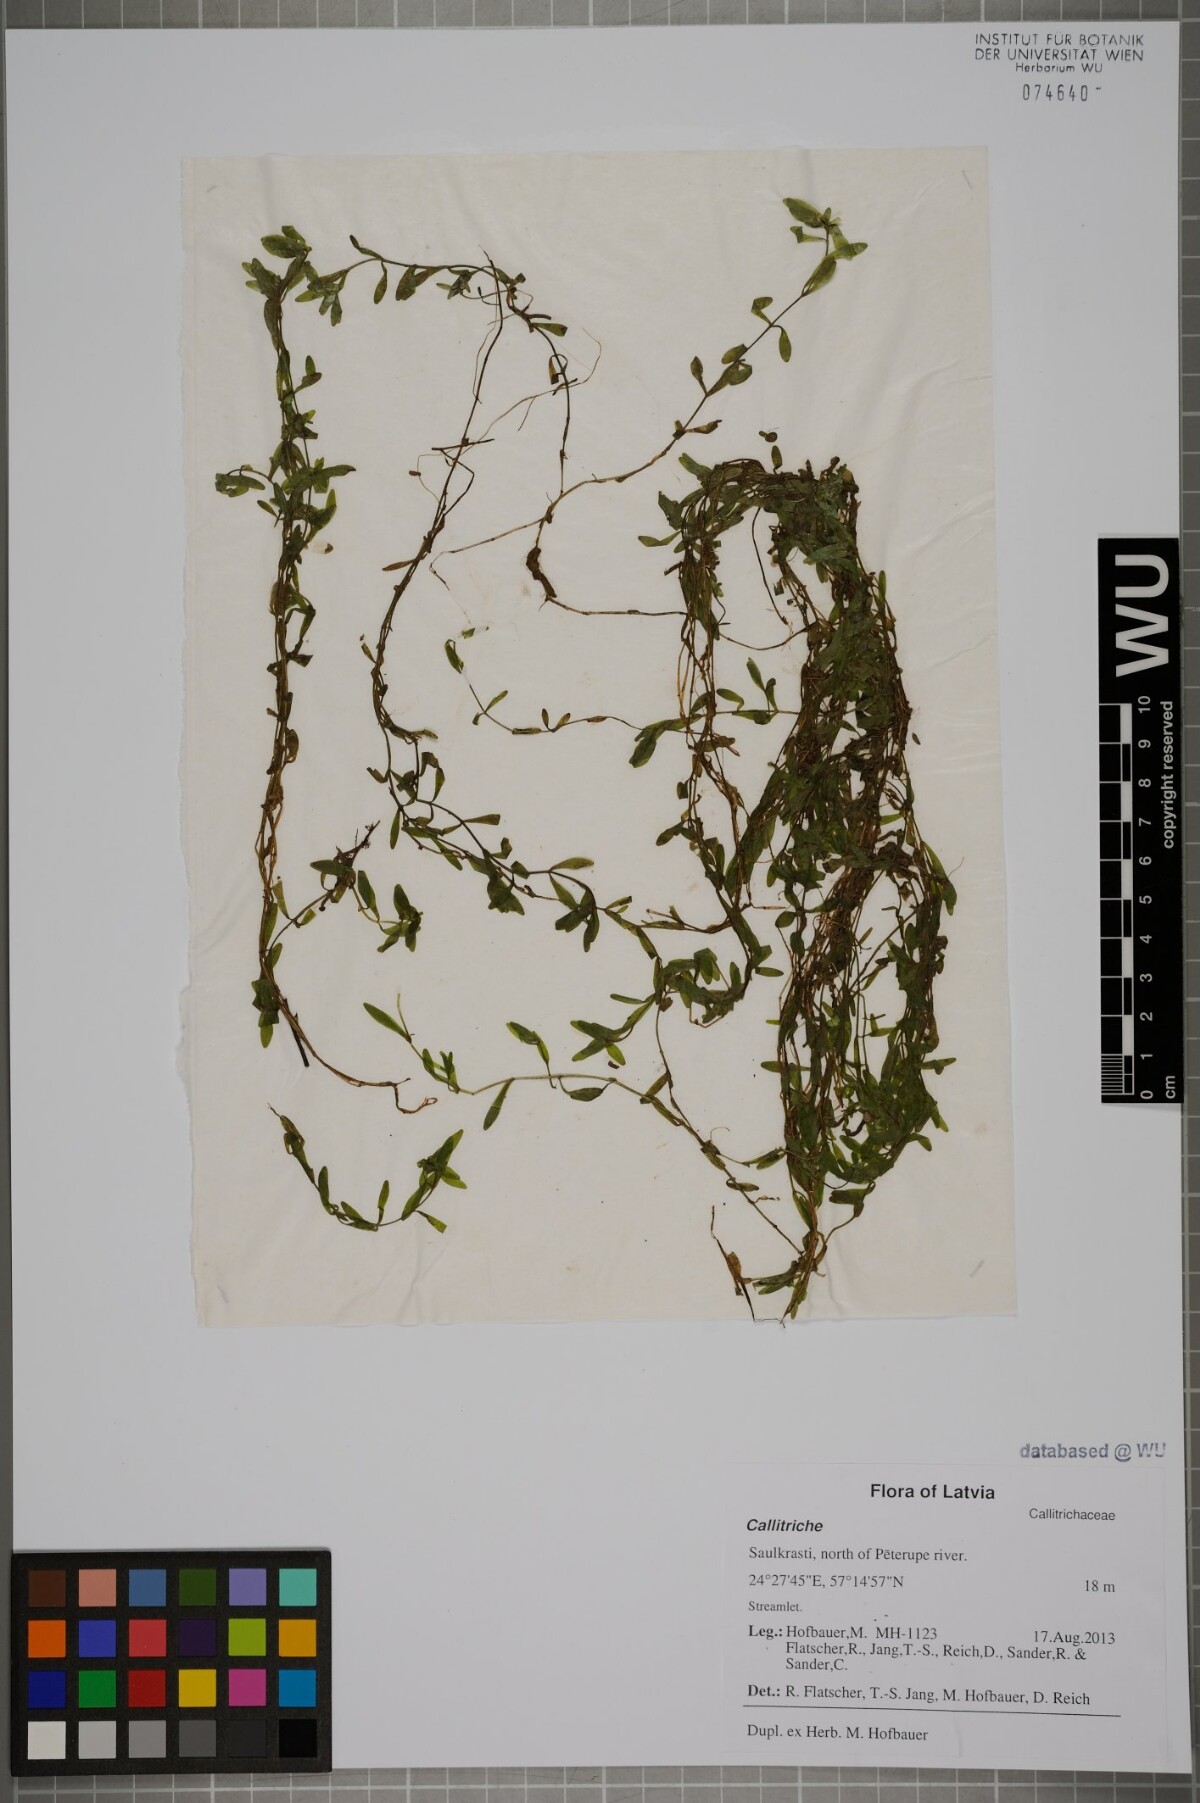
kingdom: Plantae
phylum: Tracheophyta
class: Magnoliopsida
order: Lamiales
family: Plantaginaceae
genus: Callitriche
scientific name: Callitriche
